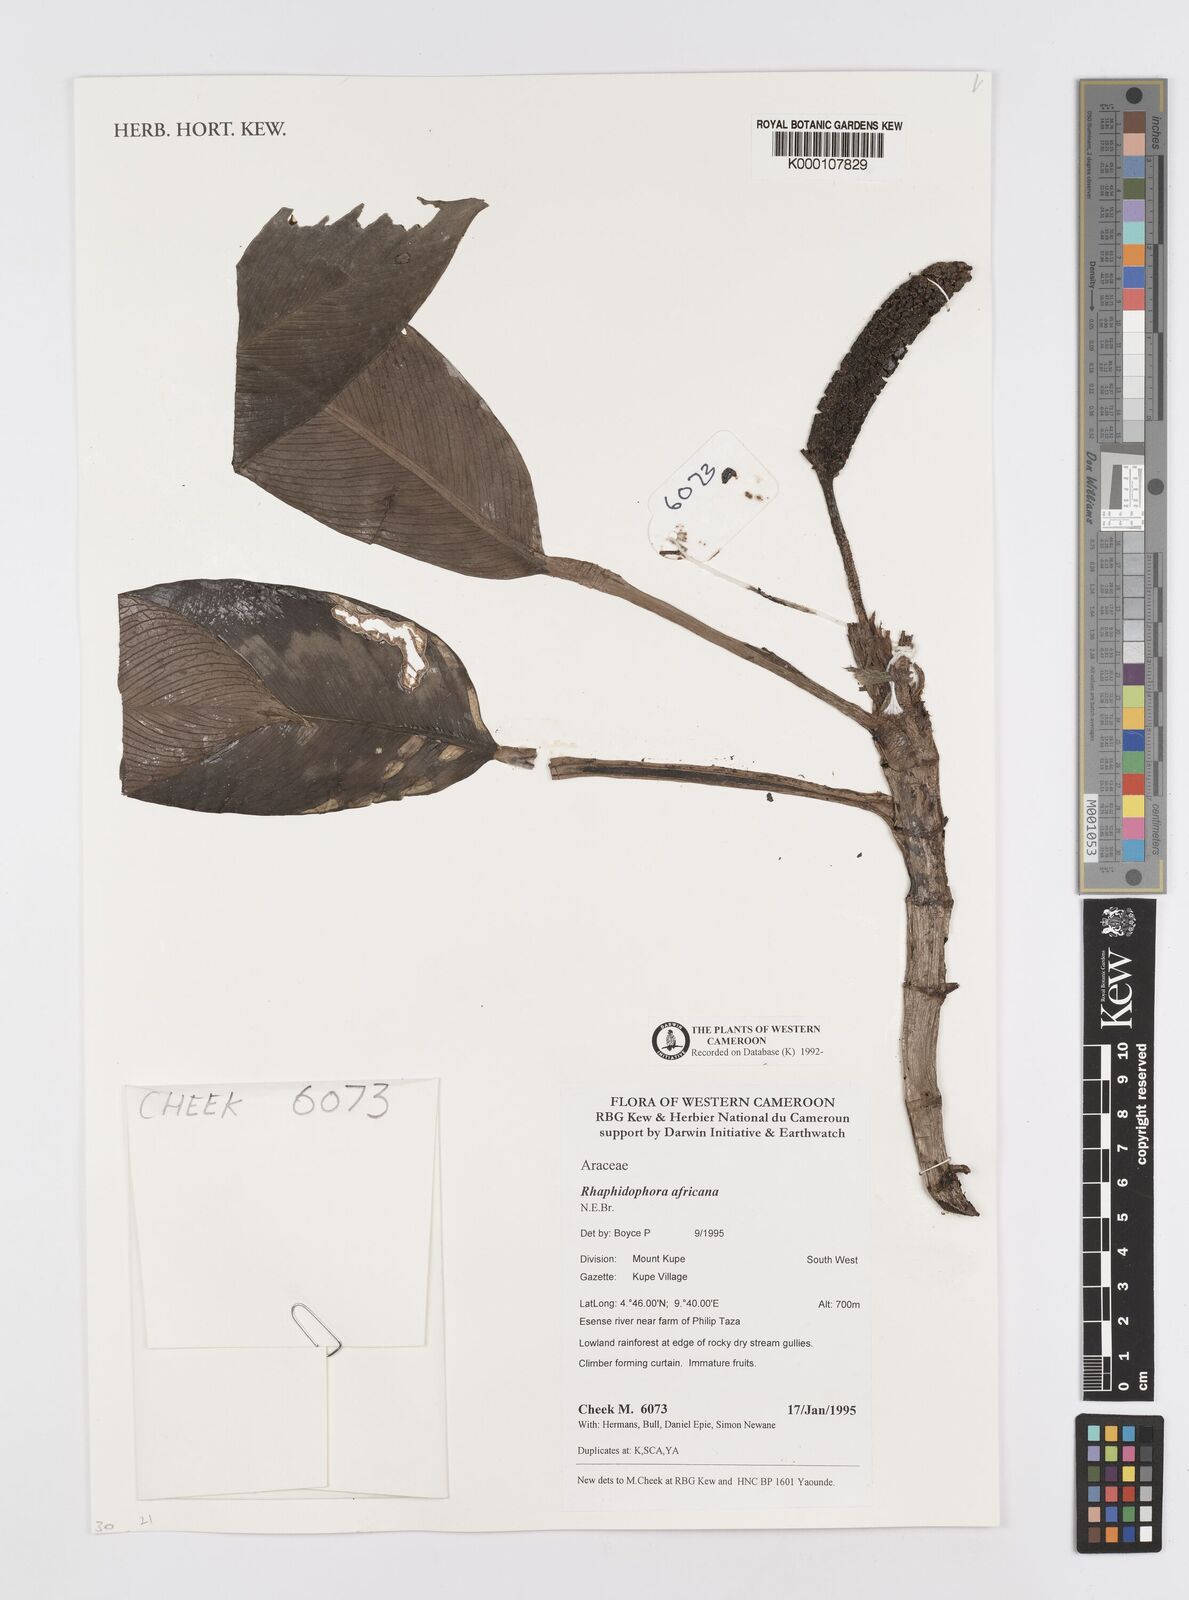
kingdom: Plantae
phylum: Tracheophyta
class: Liliopsida
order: Alismatales
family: Araceae
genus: Rhaphidophora
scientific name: Rhaphidophora africana
